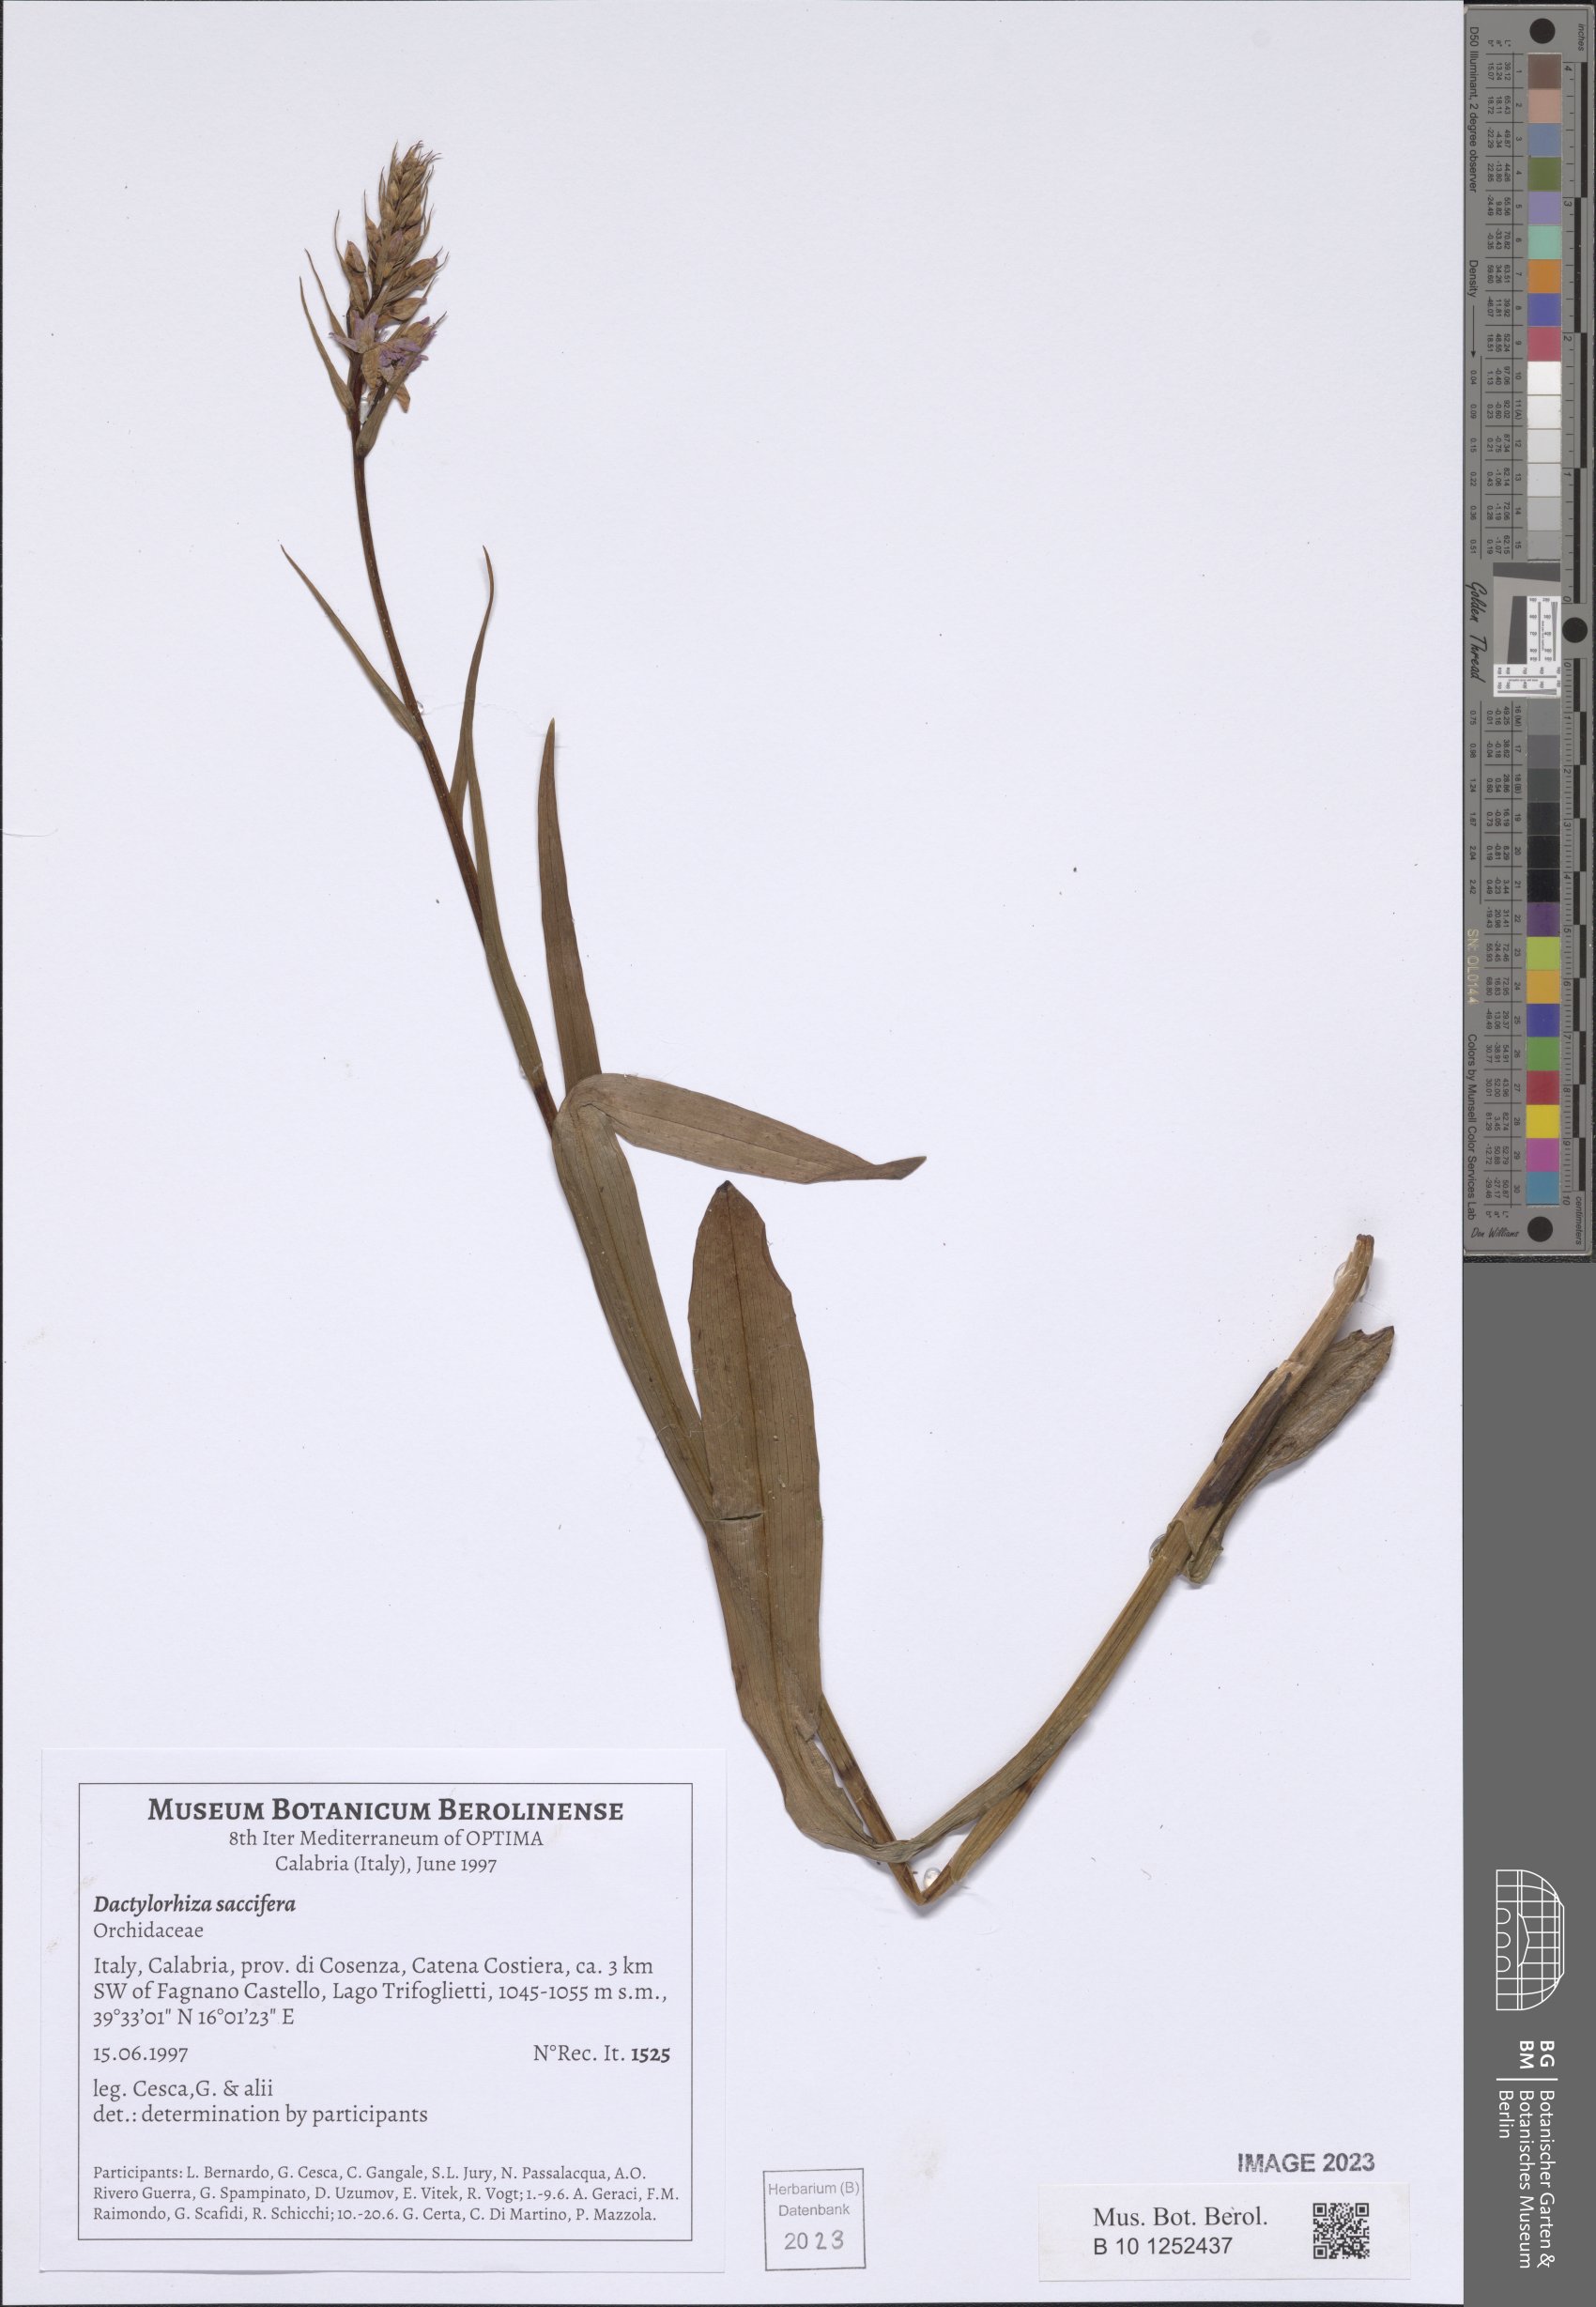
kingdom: Plantae
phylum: Tracheophyta
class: Liliopsida
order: Asparagales
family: Orchidaceae
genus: Dactylorhiza
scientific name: Dactylorhiza maculata
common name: Heath spotted-orchid
